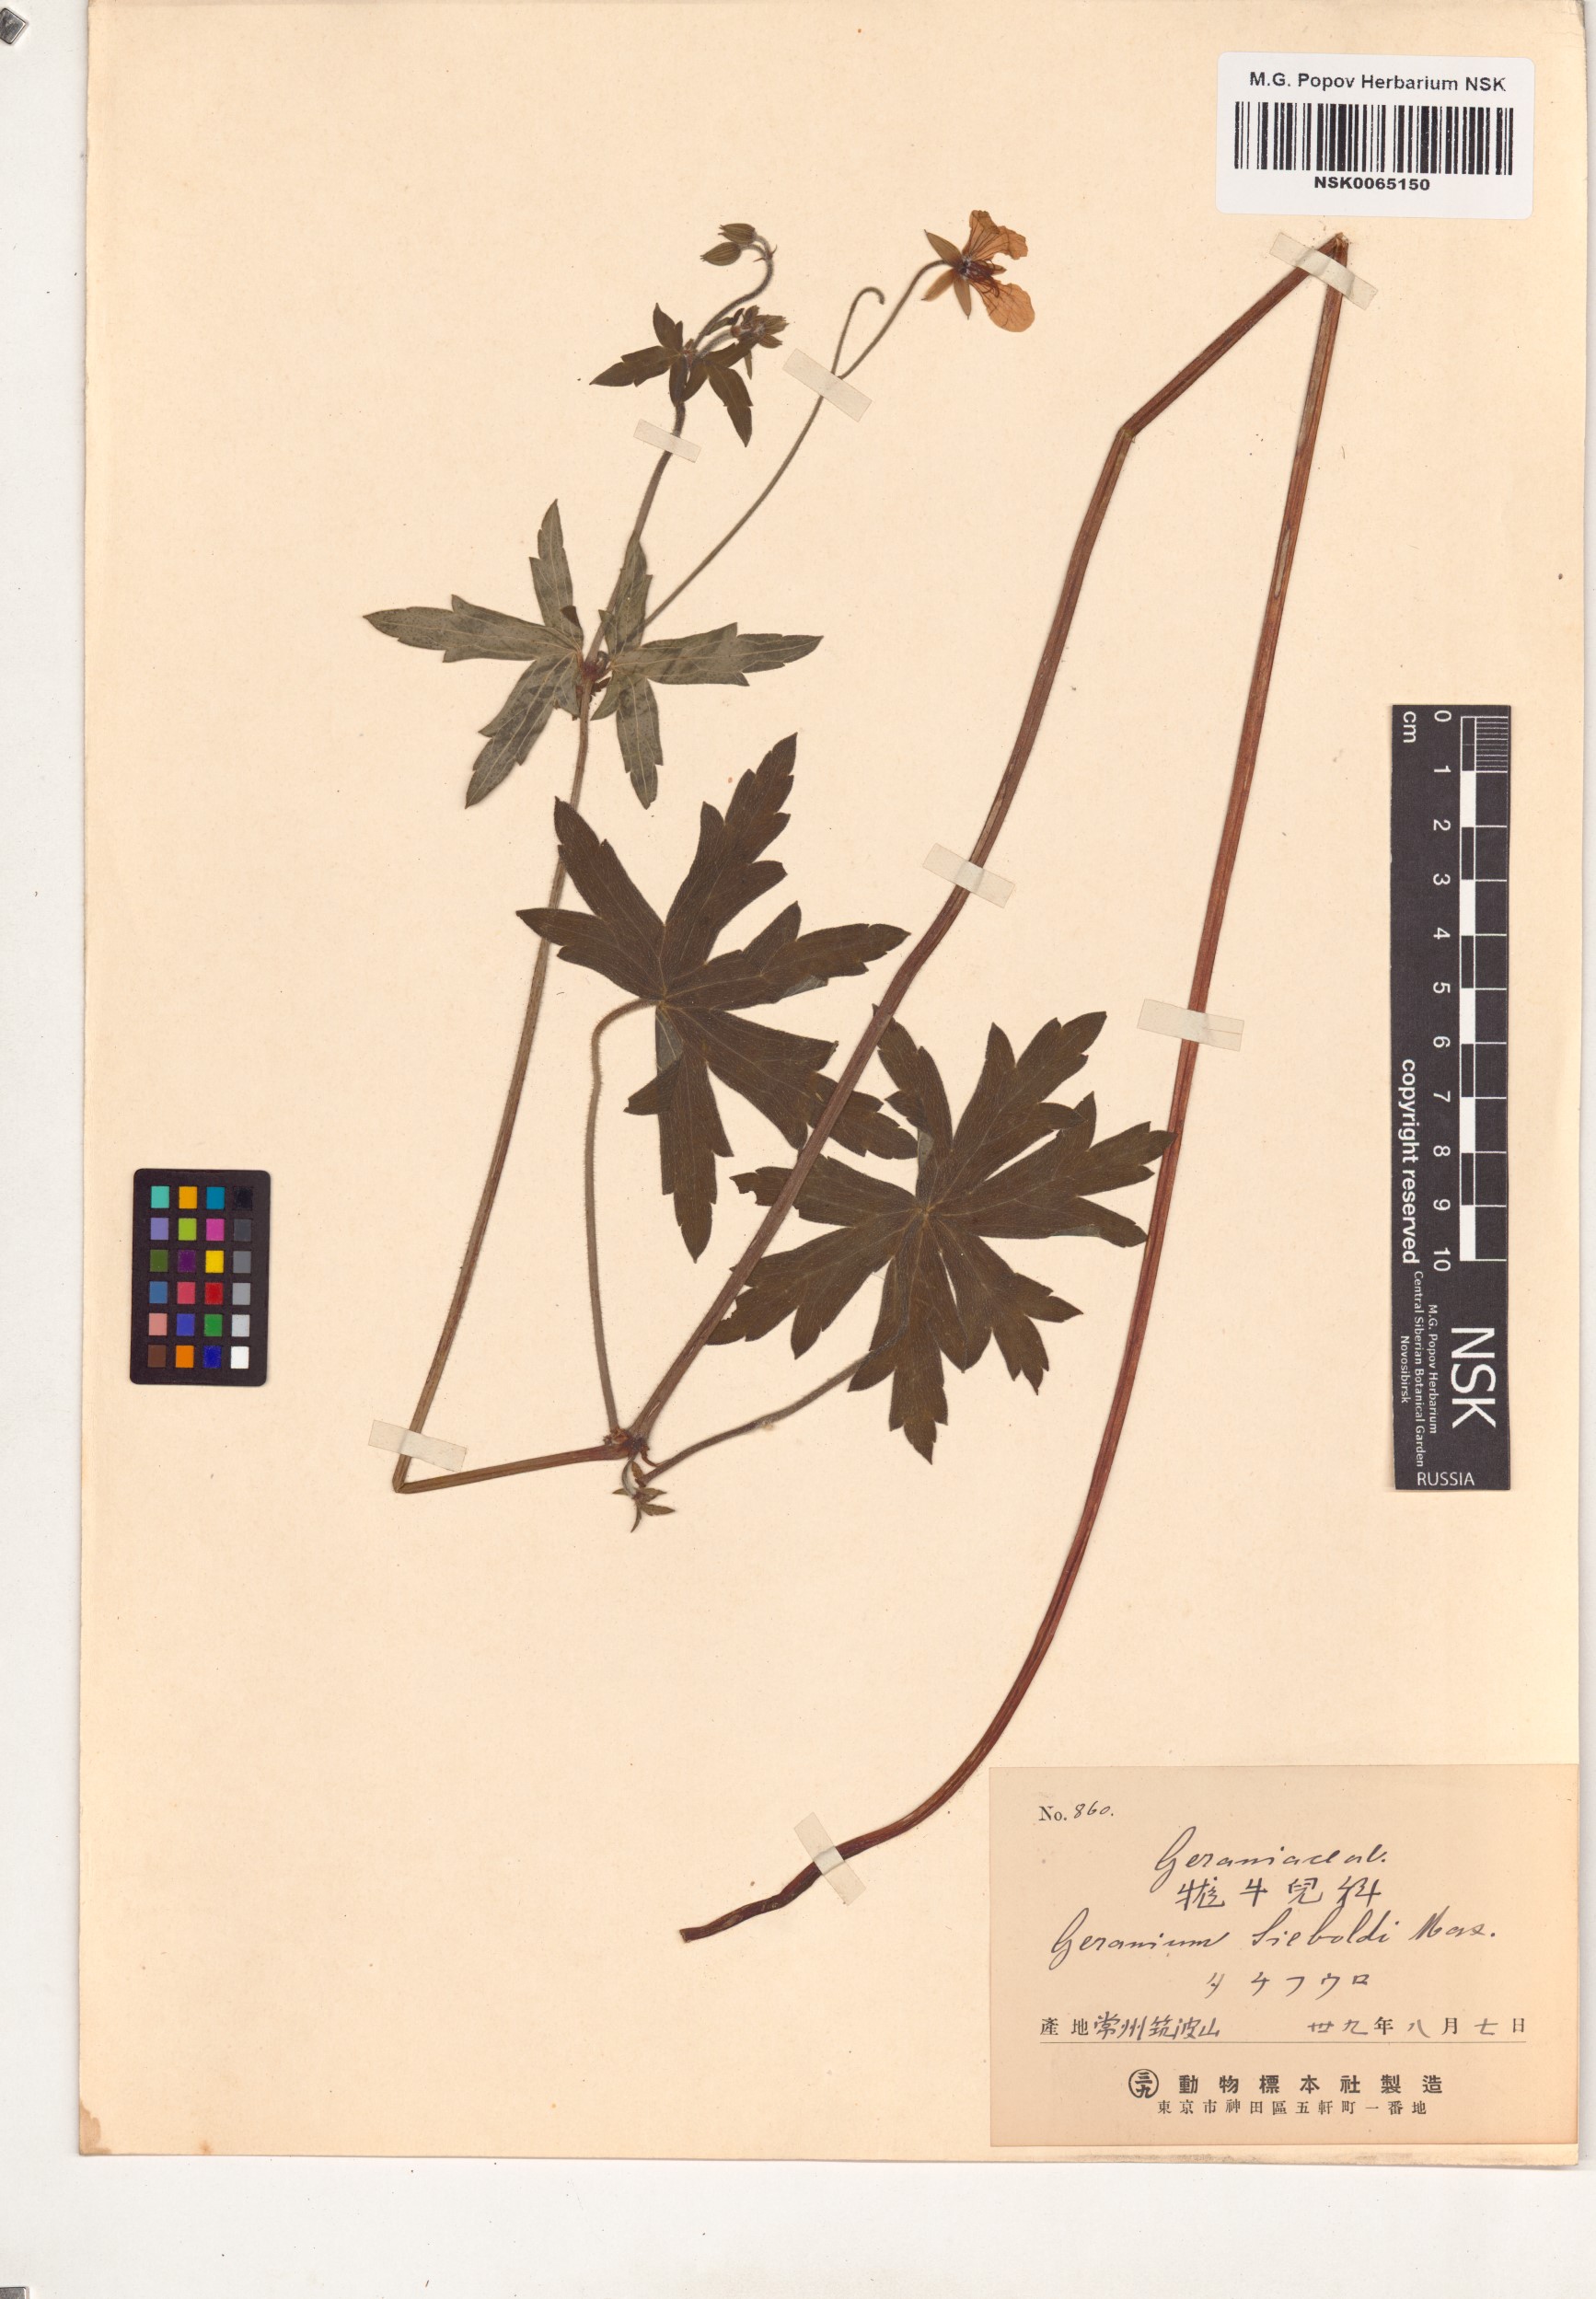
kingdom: Plantae
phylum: Tracheophyta
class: Magnoliopsida
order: Geraniales
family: Geraniaceae
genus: Geranium
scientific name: Geranium krameri
